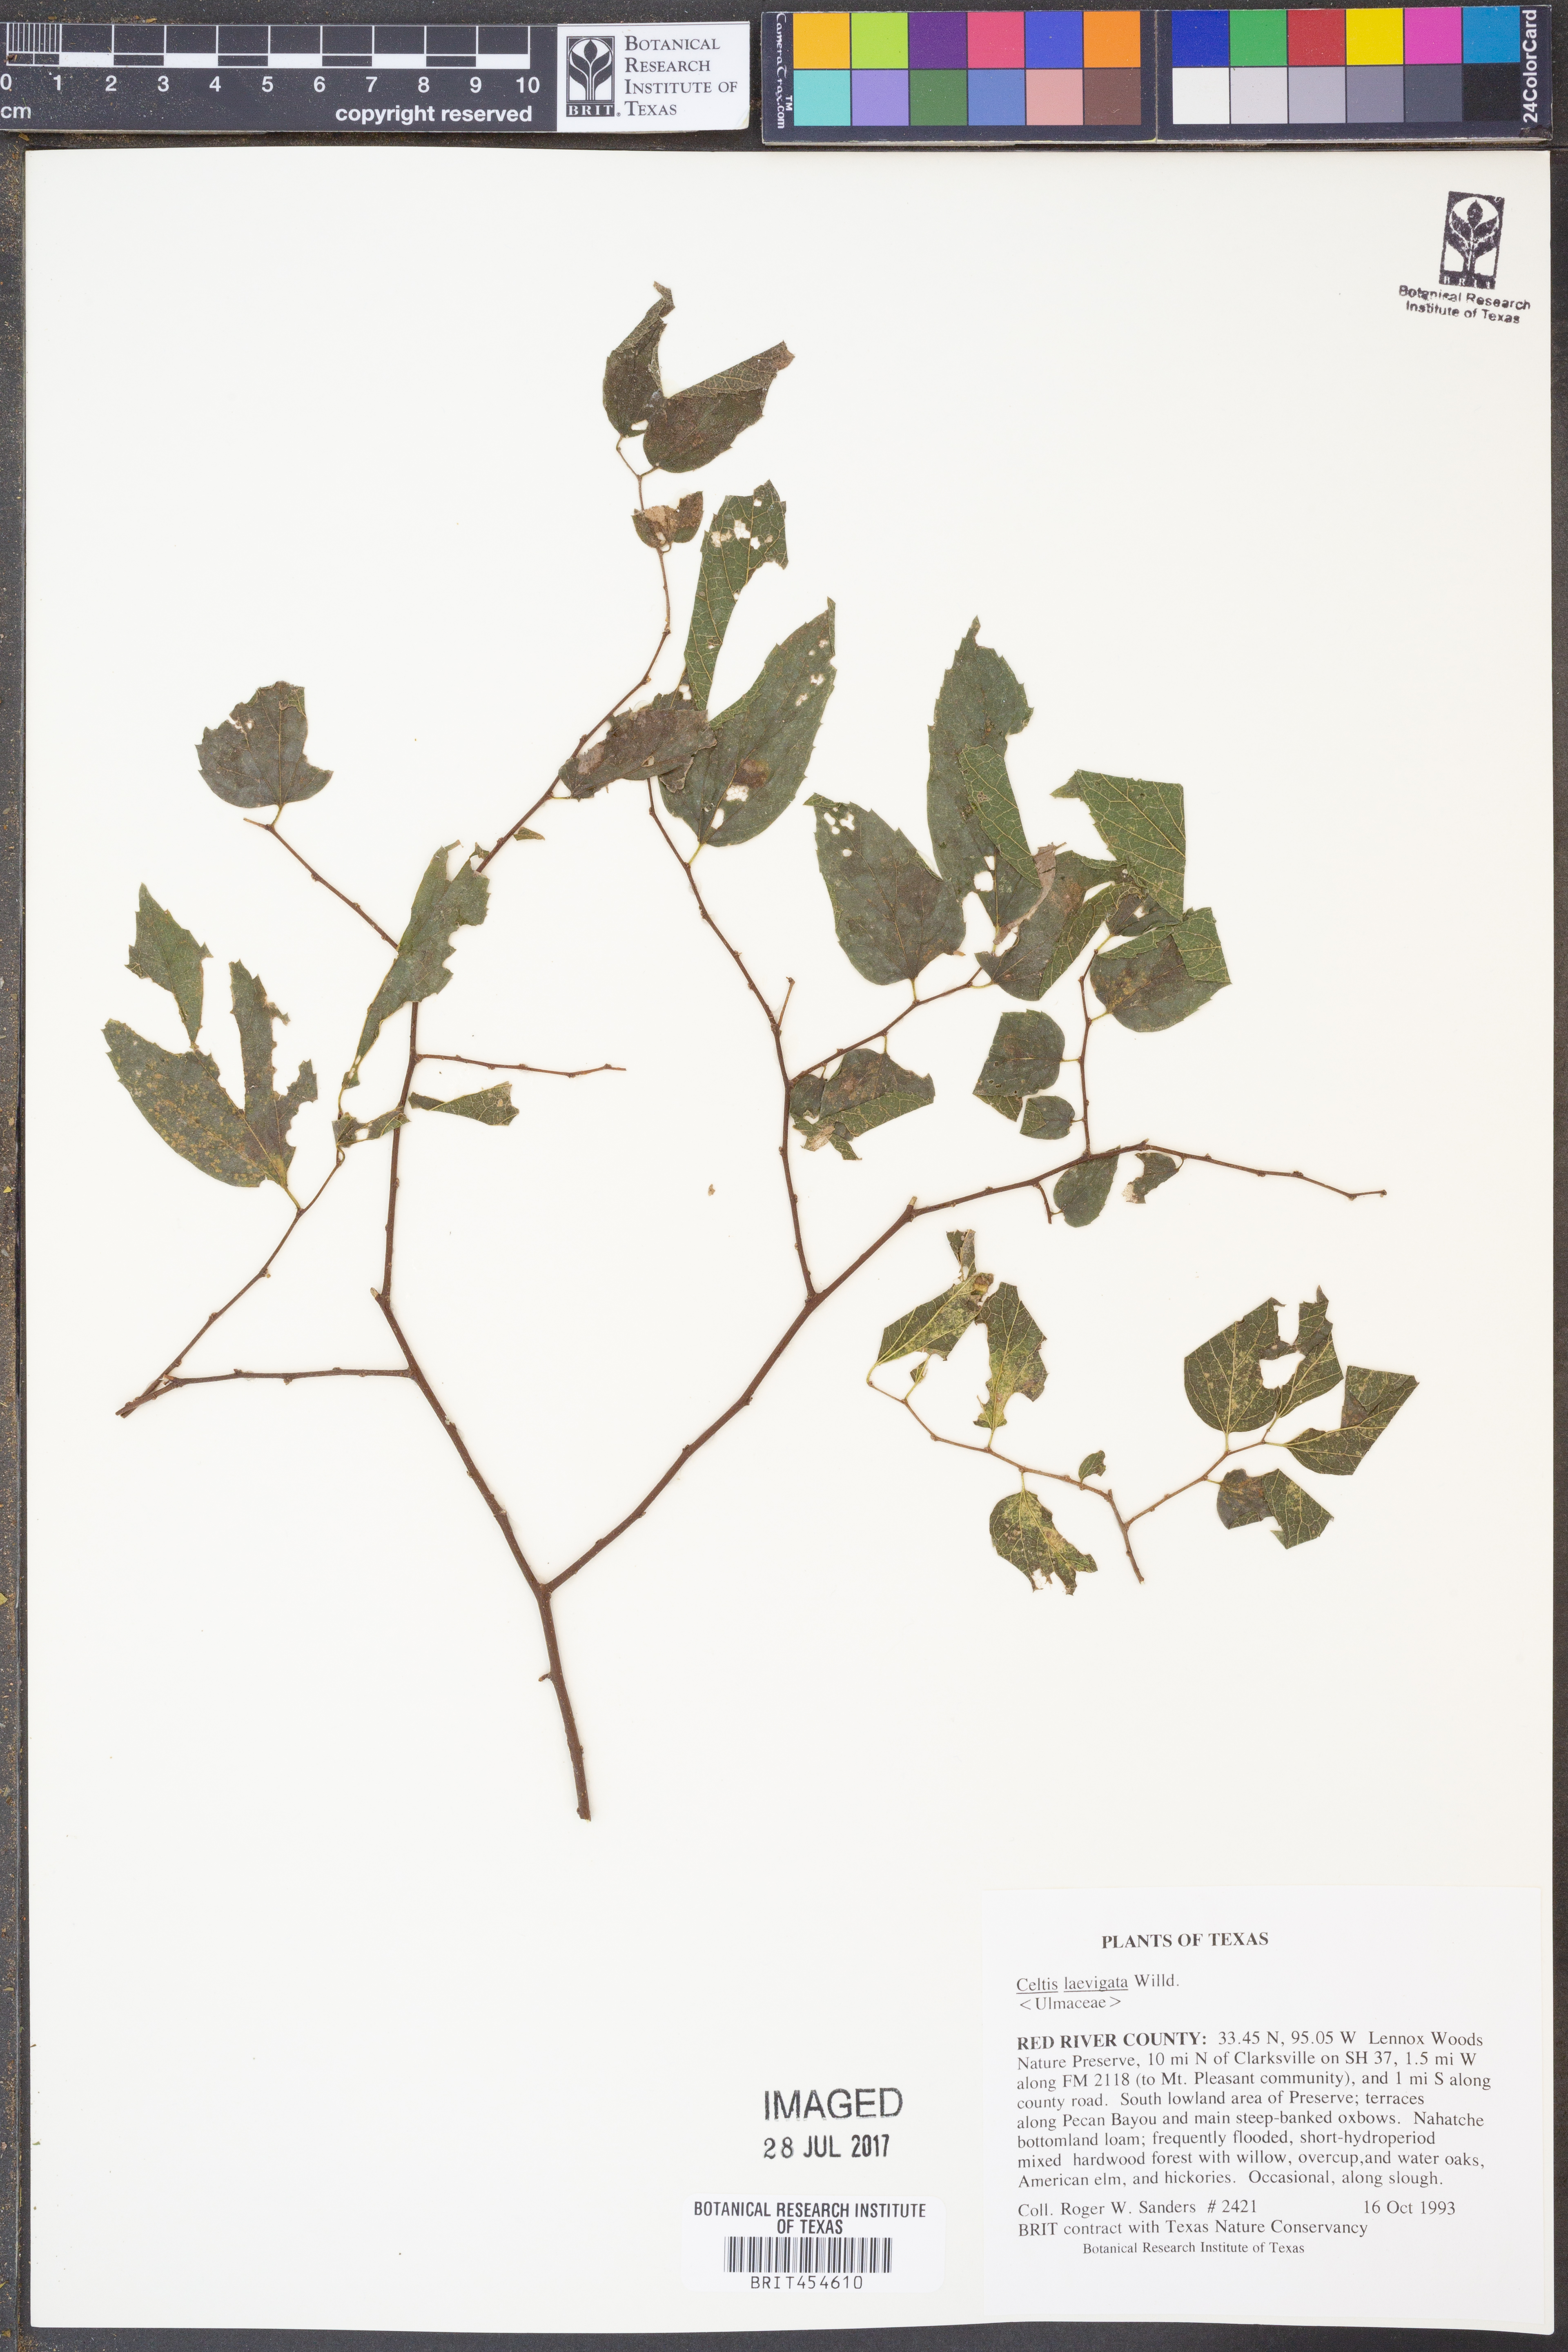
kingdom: Plantae
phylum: Tracheophyta
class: Magnoliopsida
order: Rosales
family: Cannabaceae
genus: Celtis
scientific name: Celtis laevigata
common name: Sugarberry
